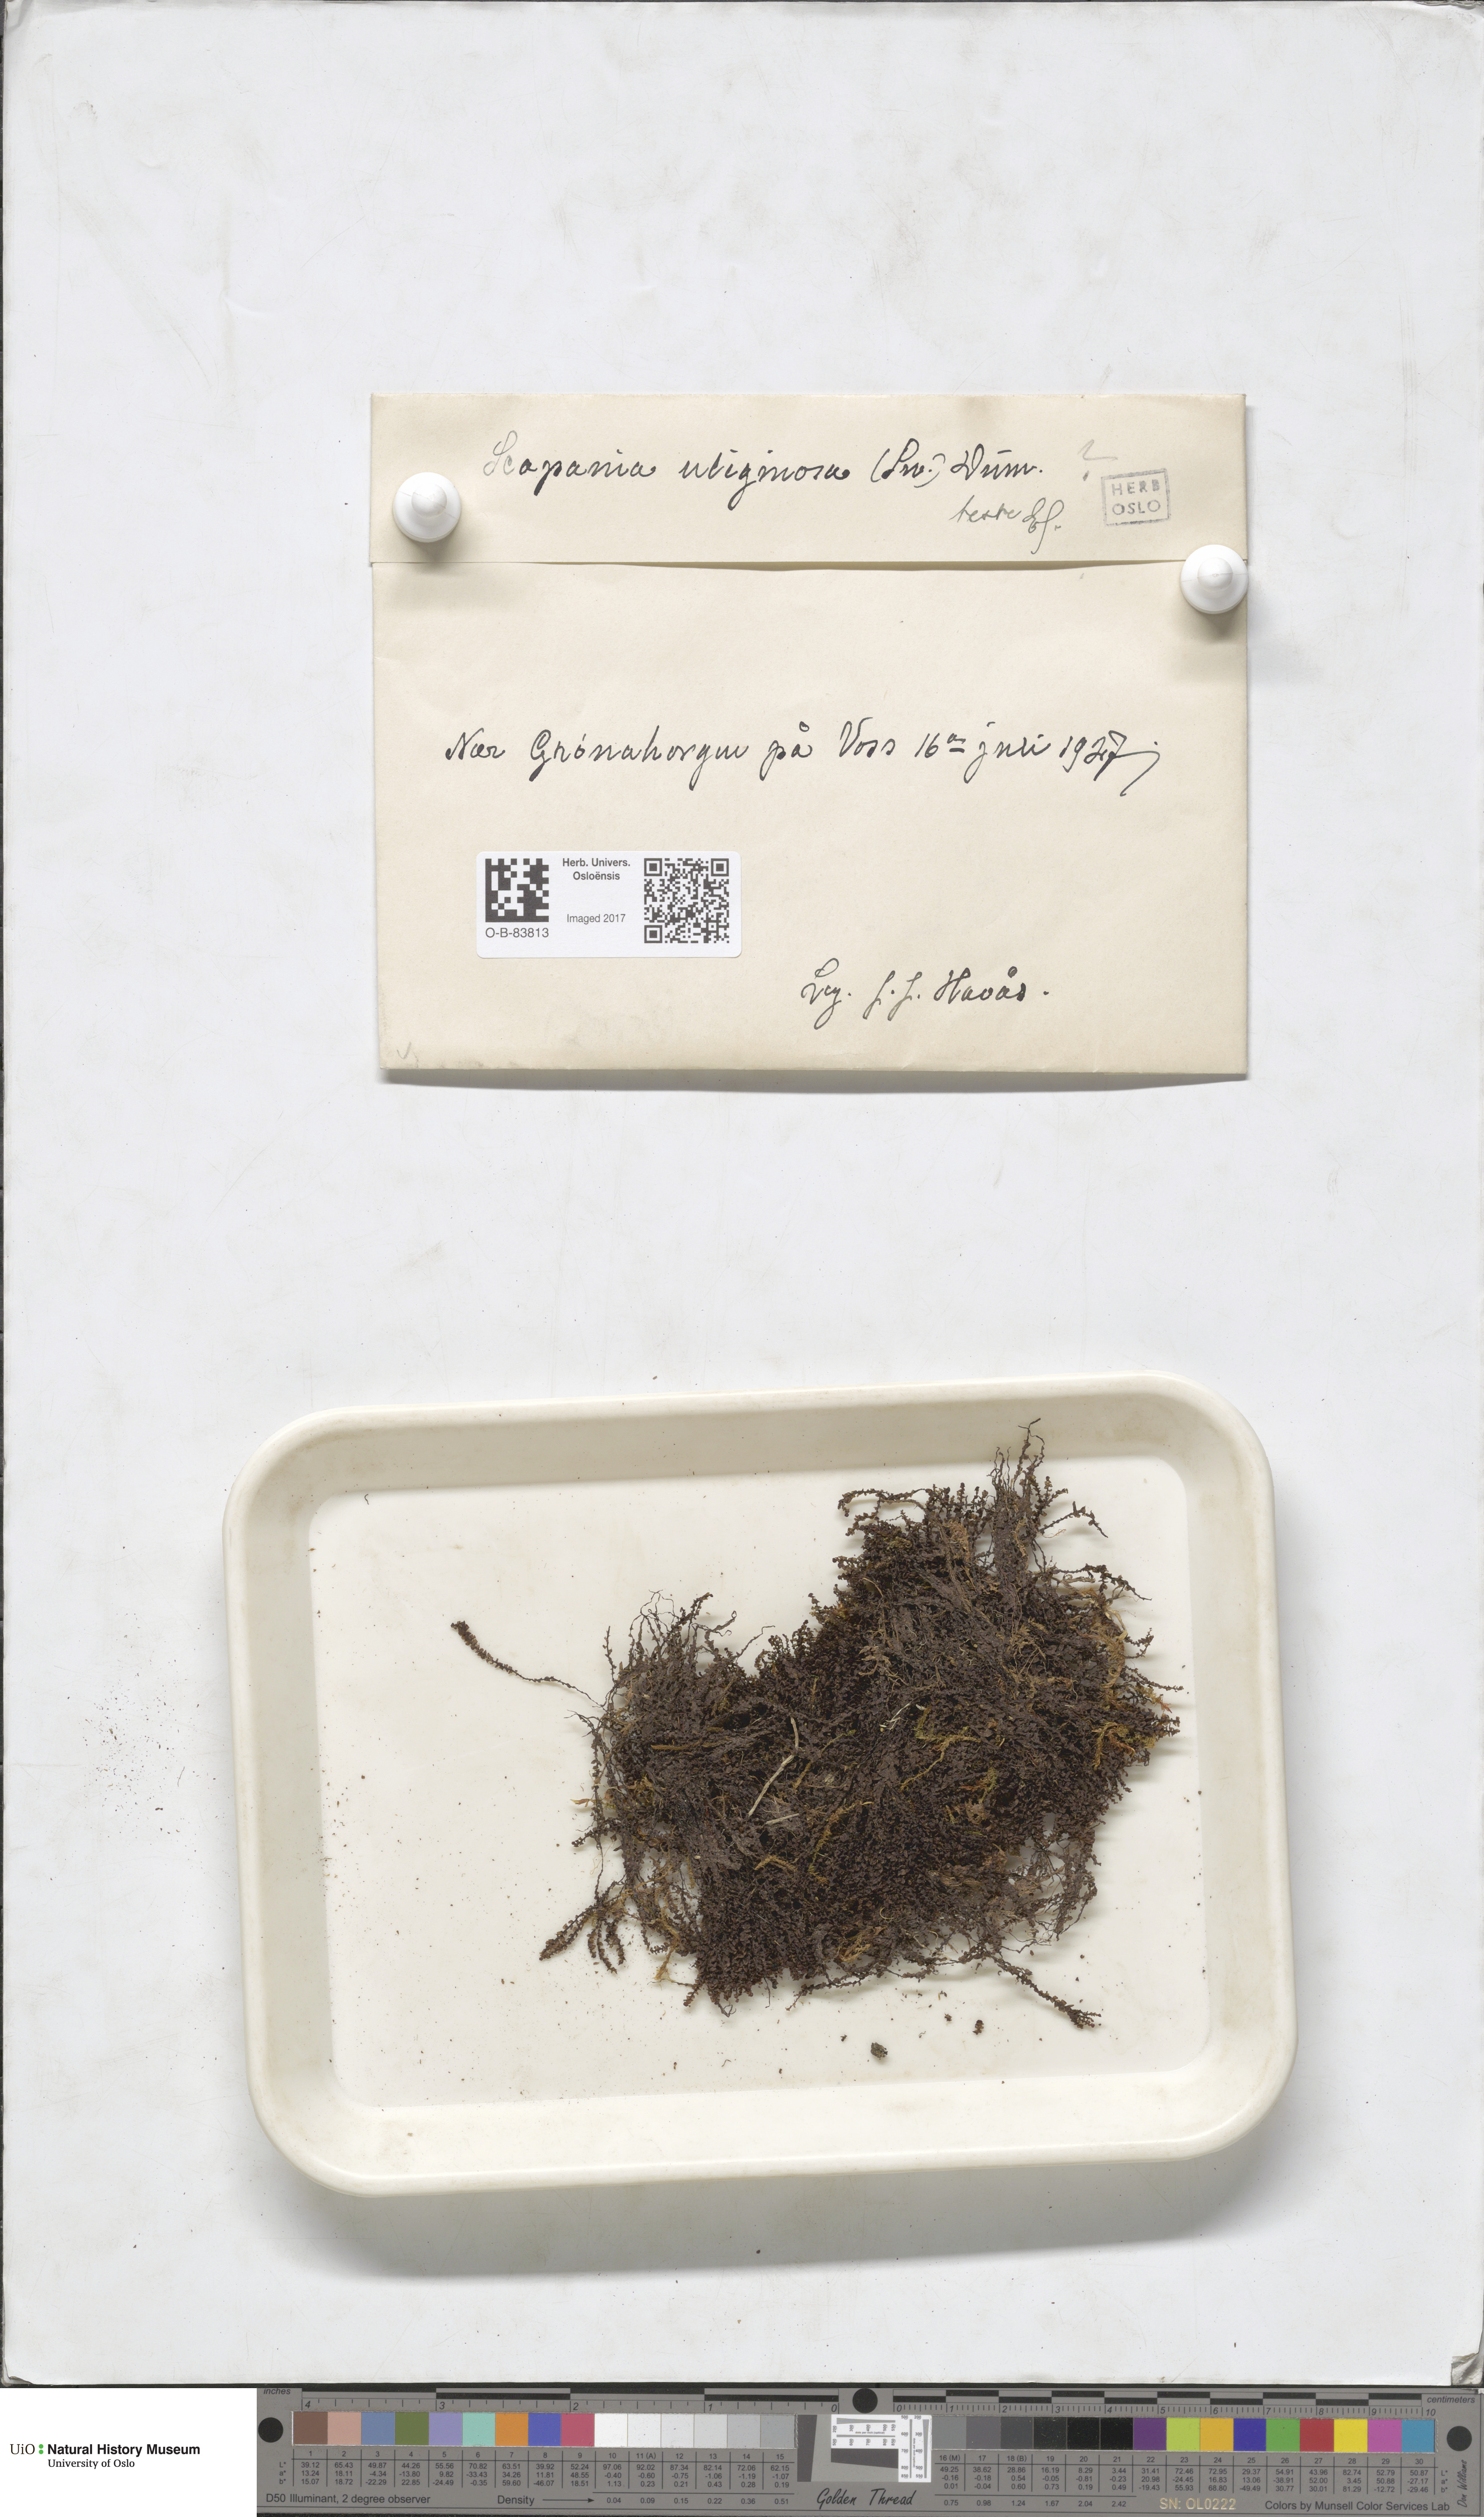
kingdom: Plantae
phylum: Marchantiophyta
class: Jungermanniopsida
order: Jungermanniales
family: Scapaniaceae
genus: Scapania
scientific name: Scapania uliginosa
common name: Marsh earwort
